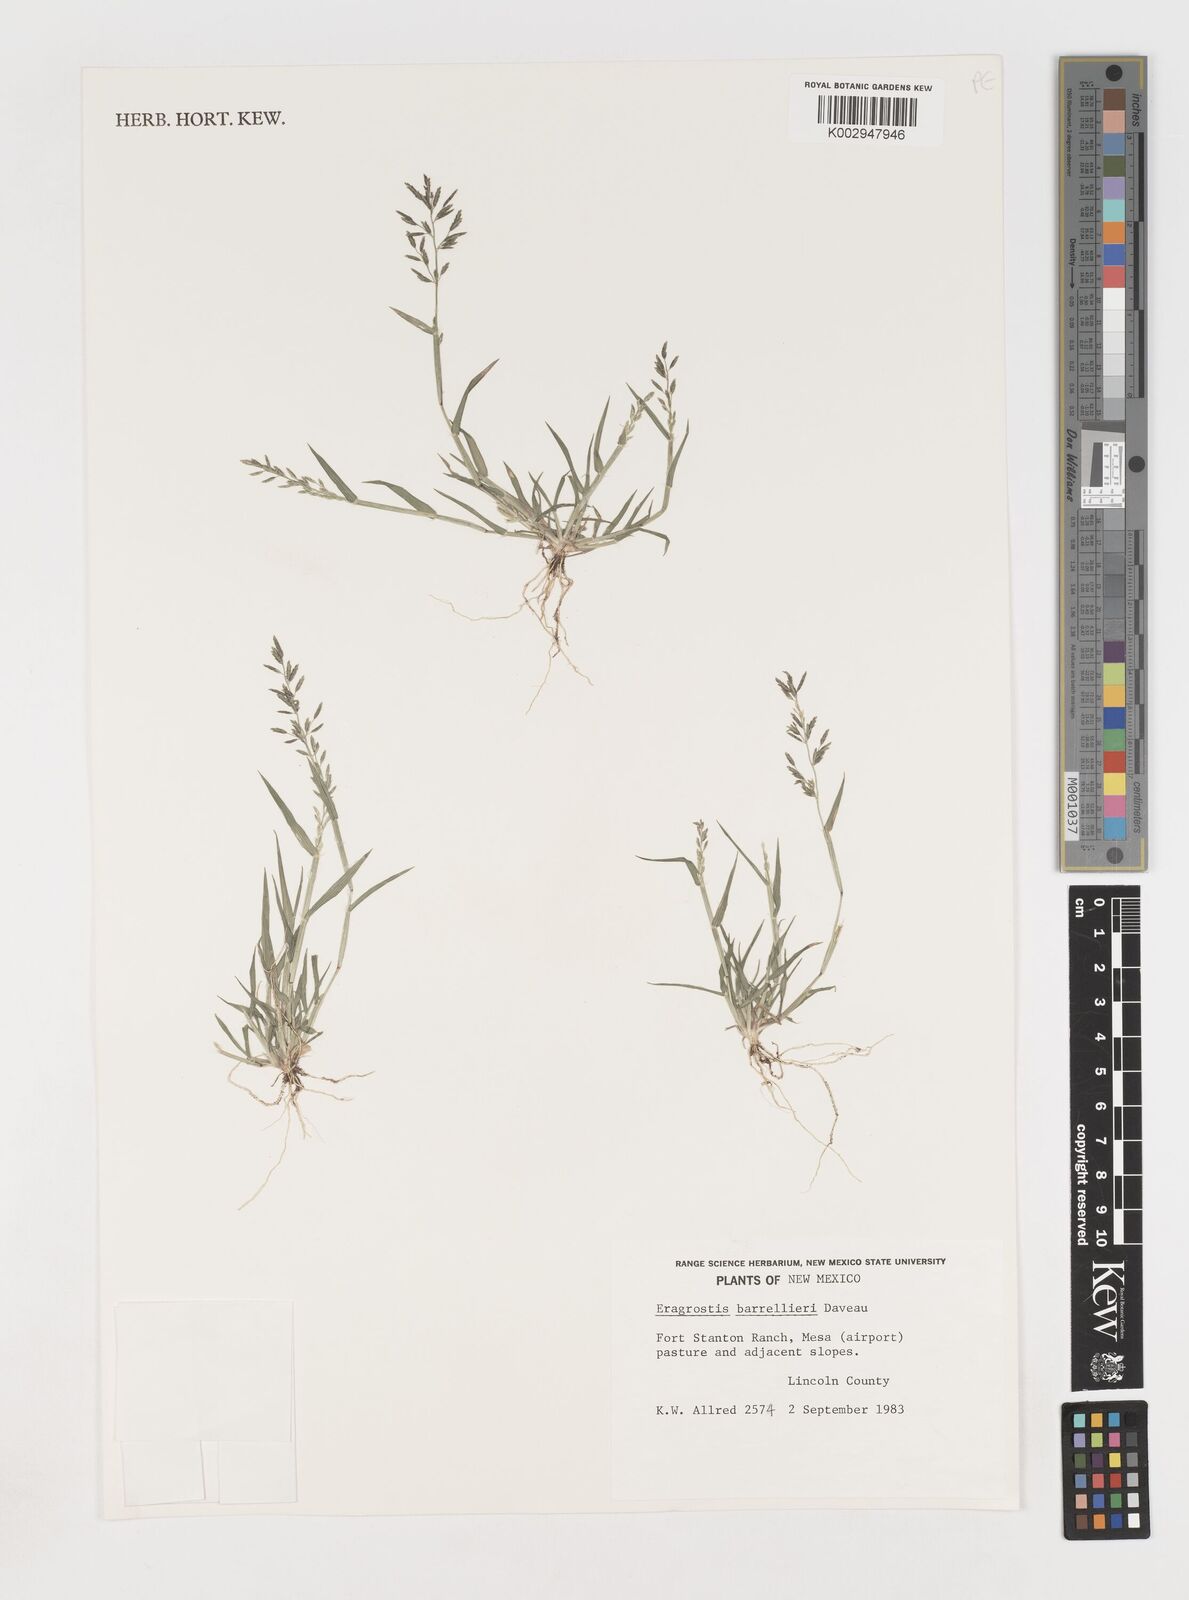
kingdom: Plantae
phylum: Tracheophyta
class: Liliopsida
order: Poales
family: Poaceae
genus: Eragrostis
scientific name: Eragrostis barrelieri
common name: Mediterranean lovegrass
